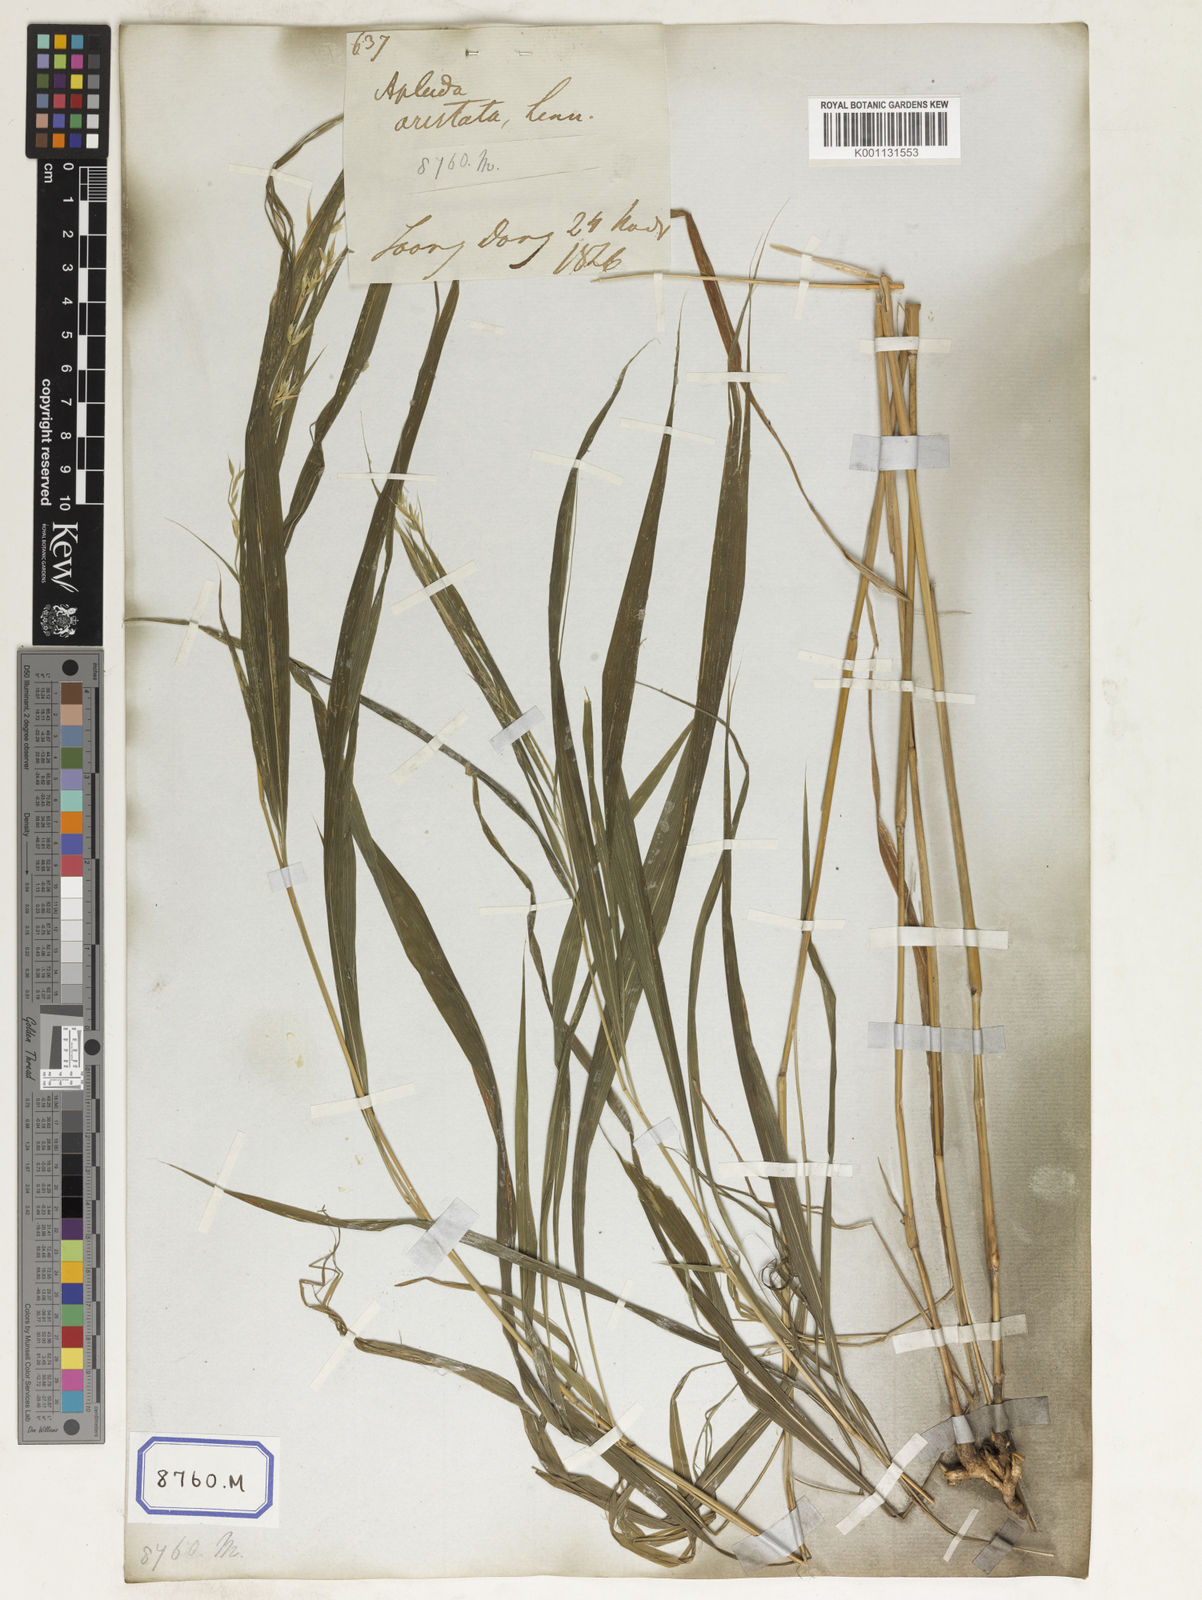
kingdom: Plantae
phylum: Tracheophyta
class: Liliopsida
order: Poales
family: Poaceae
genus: Apluda
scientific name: Apluda
